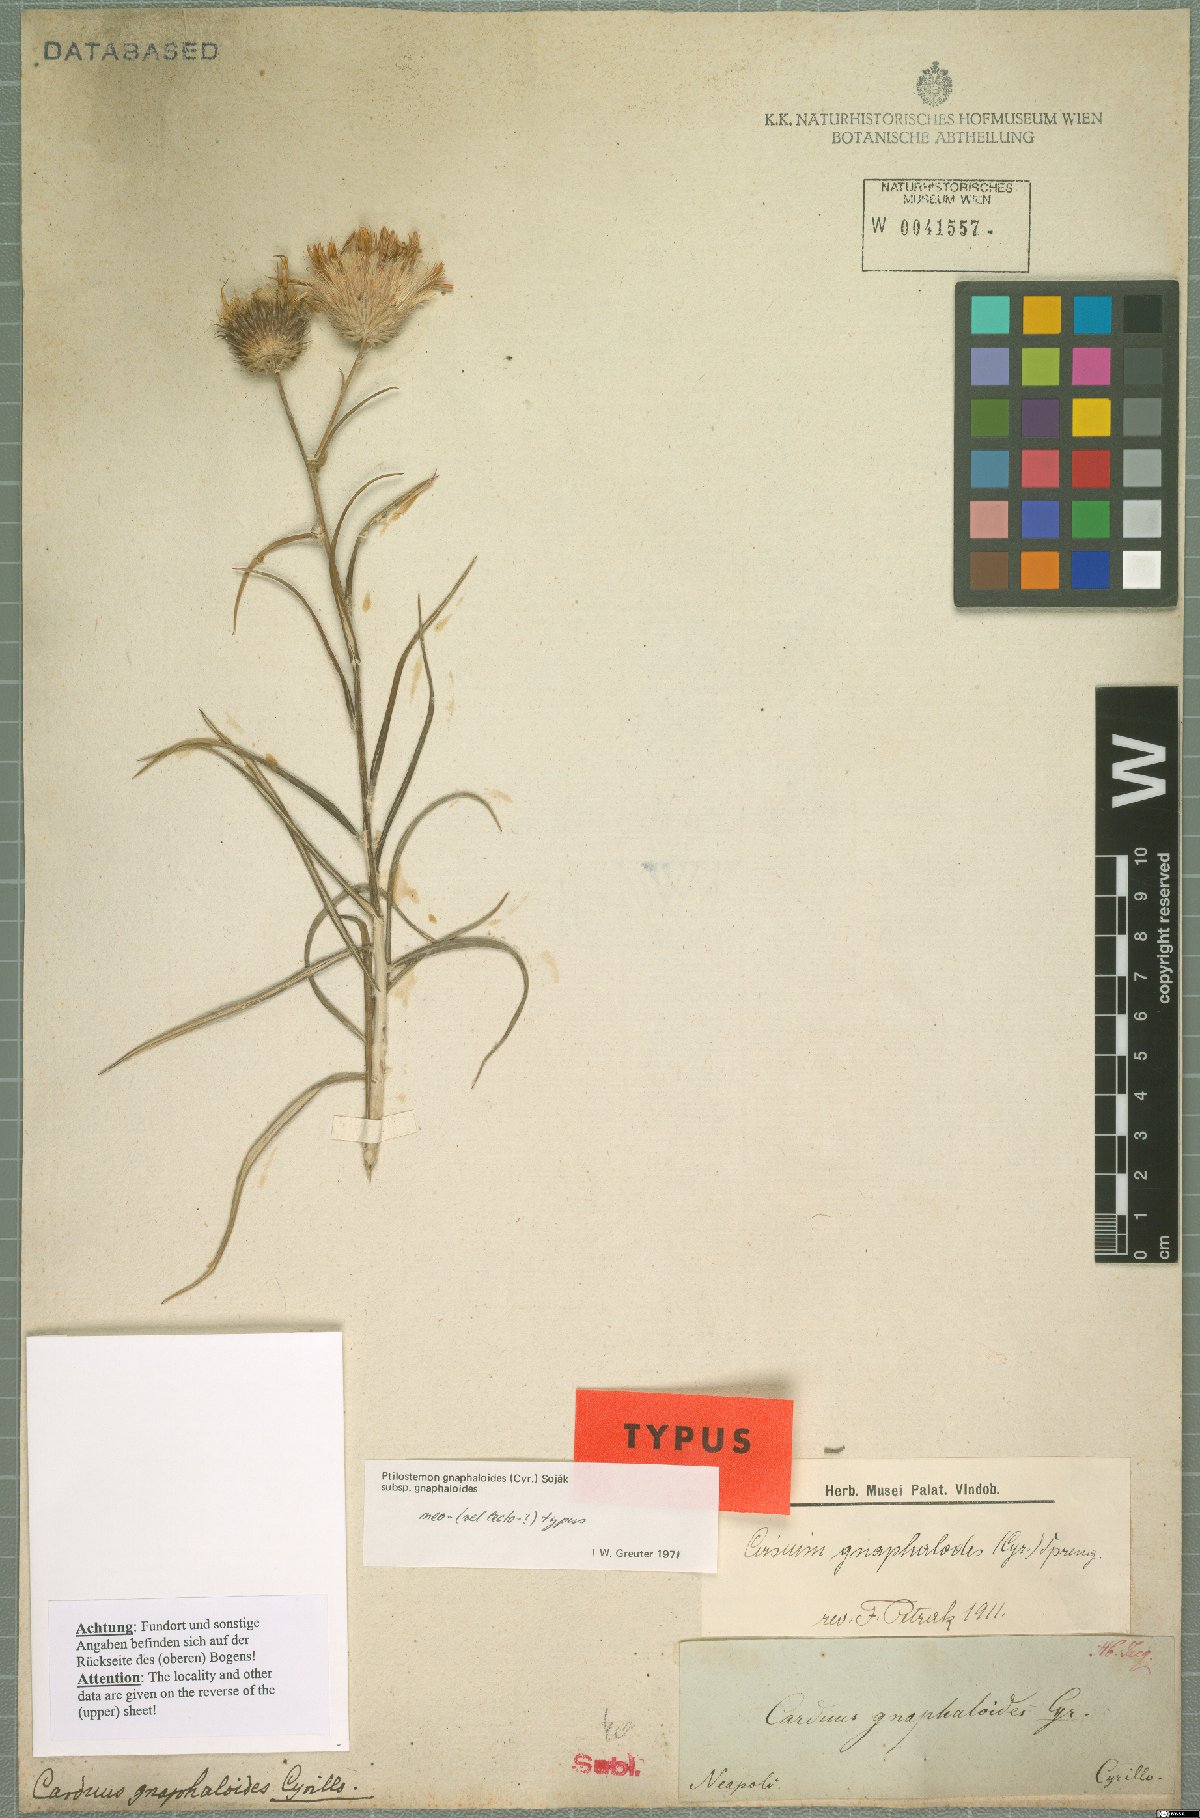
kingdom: Plantae
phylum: Tracheophyta
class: Magnoliopsida
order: Asterales
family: Asteraceae
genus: Ptilostemon
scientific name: Ptilostemon gnaphaloides
